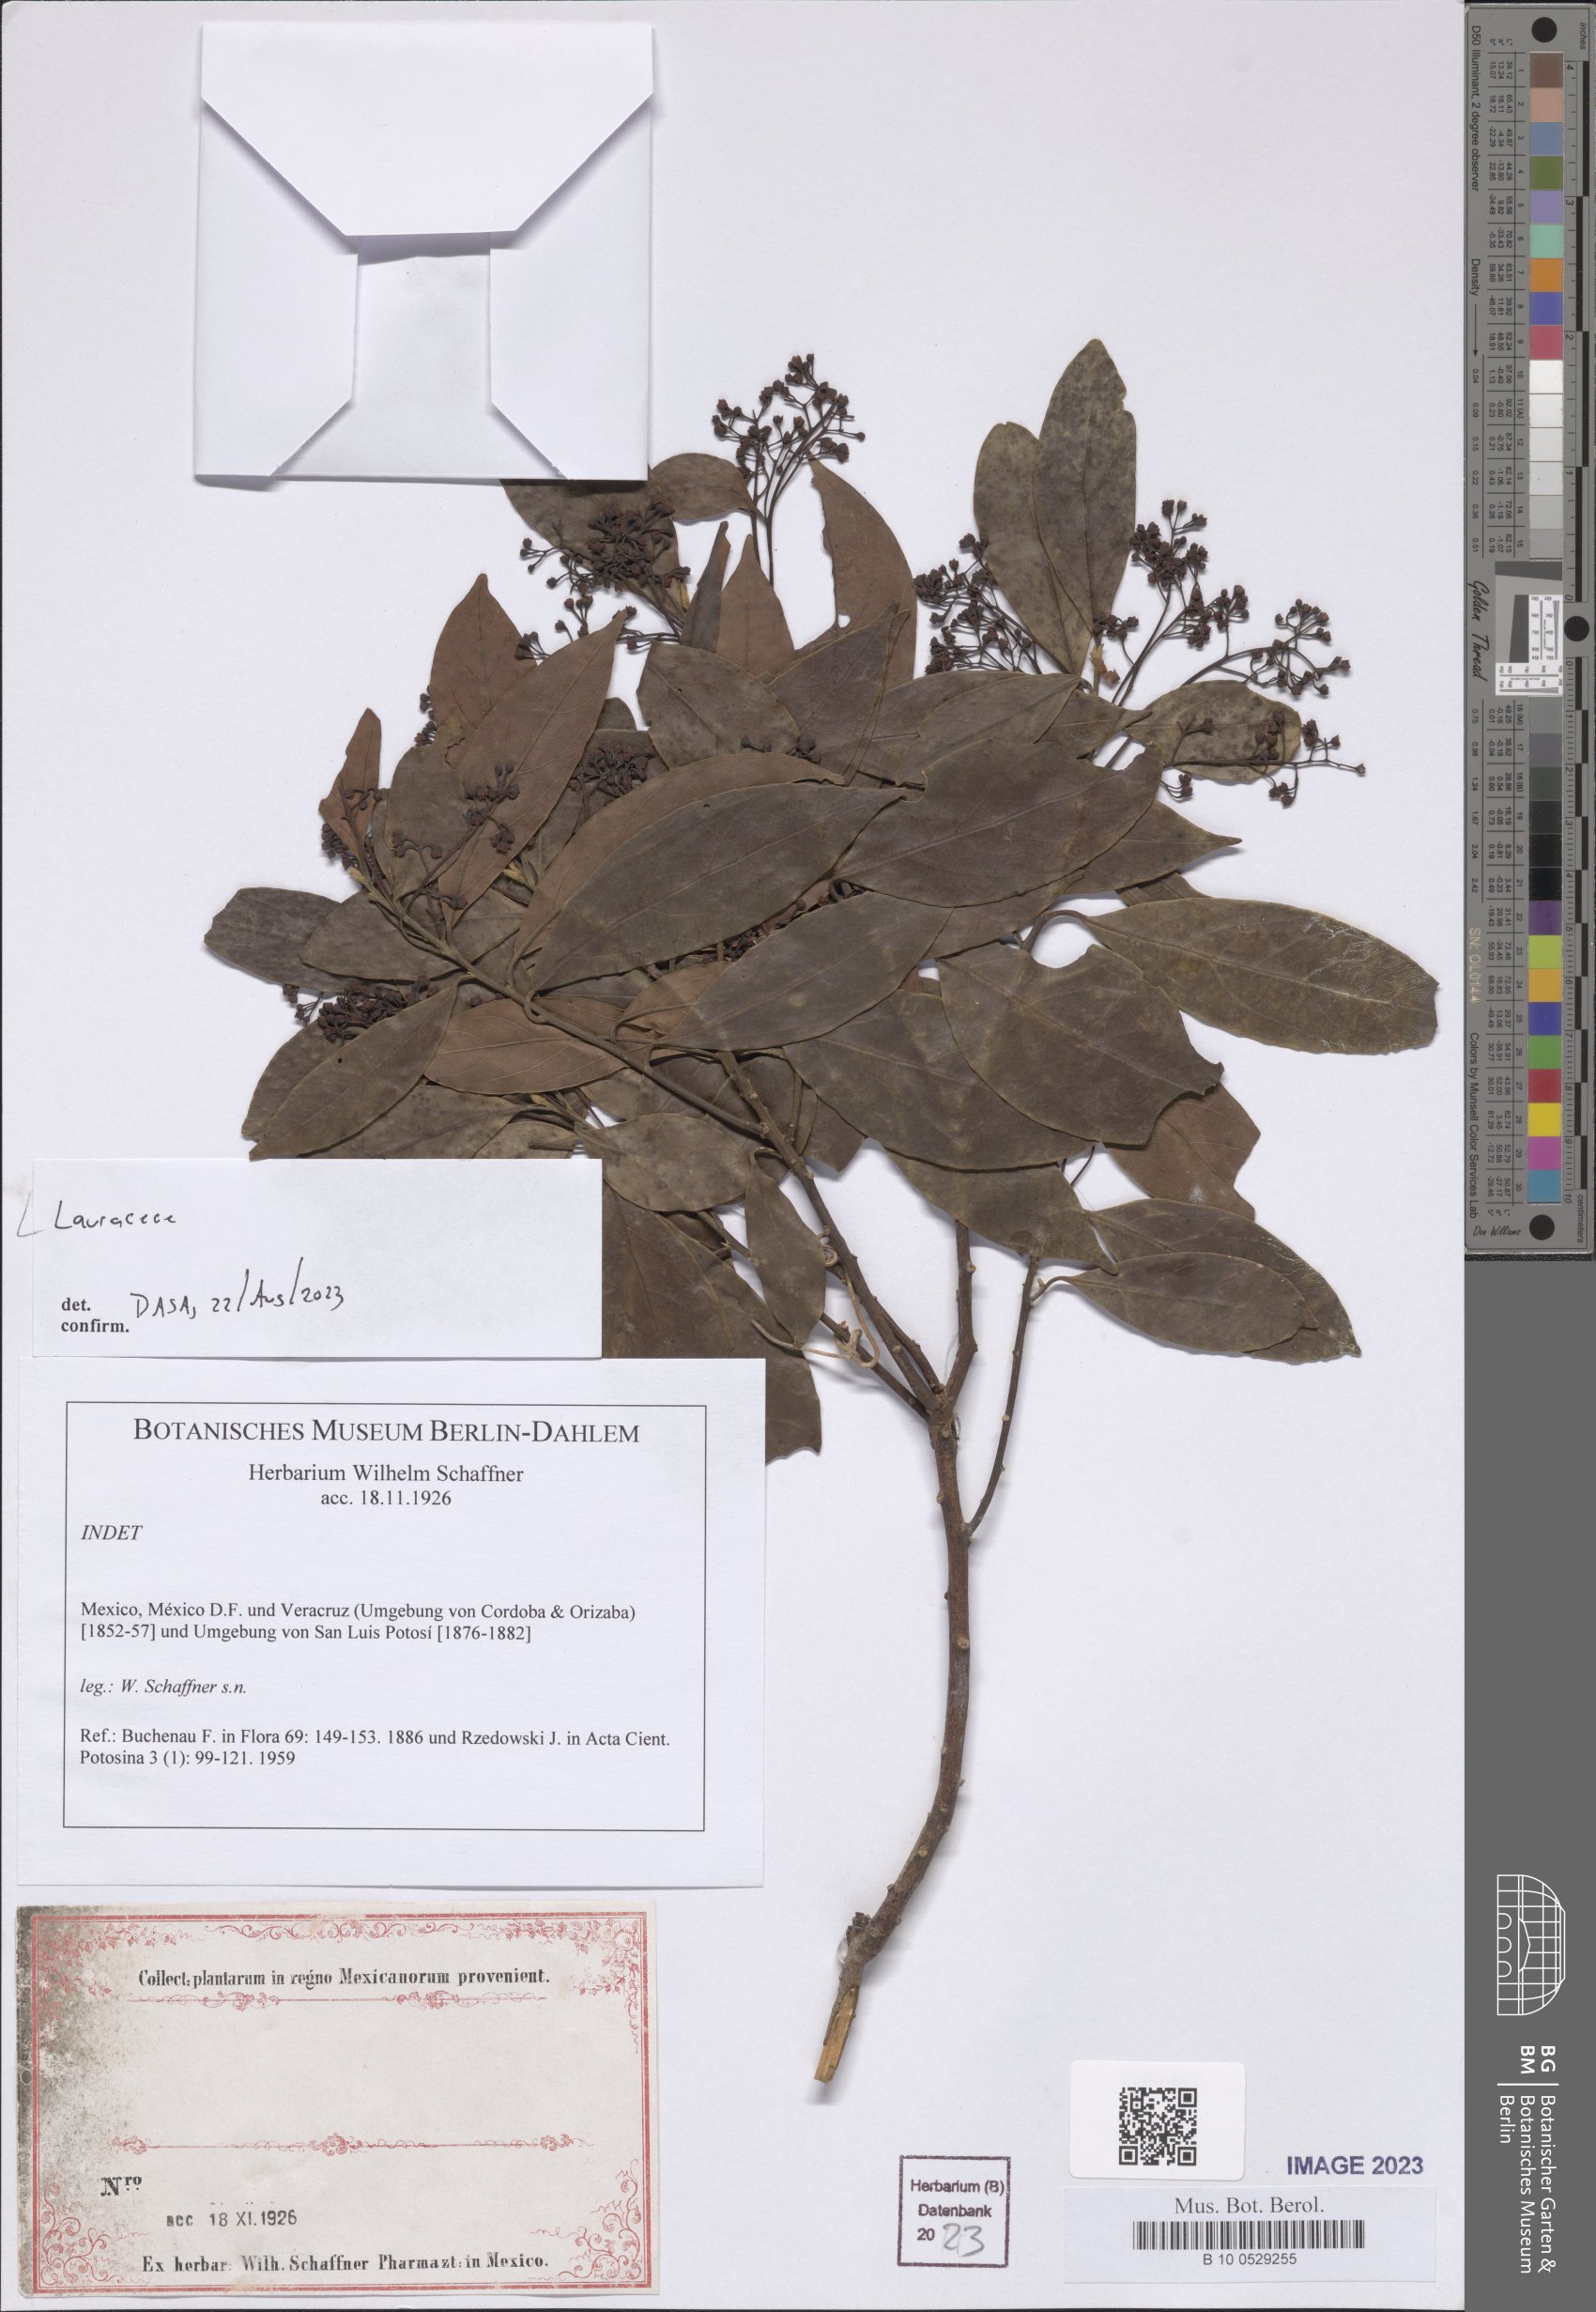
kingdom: Plantae
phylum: Tracheophyta
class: Magnoliopsida
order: Laurales
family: Lauraceae
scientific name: Lauraceae
